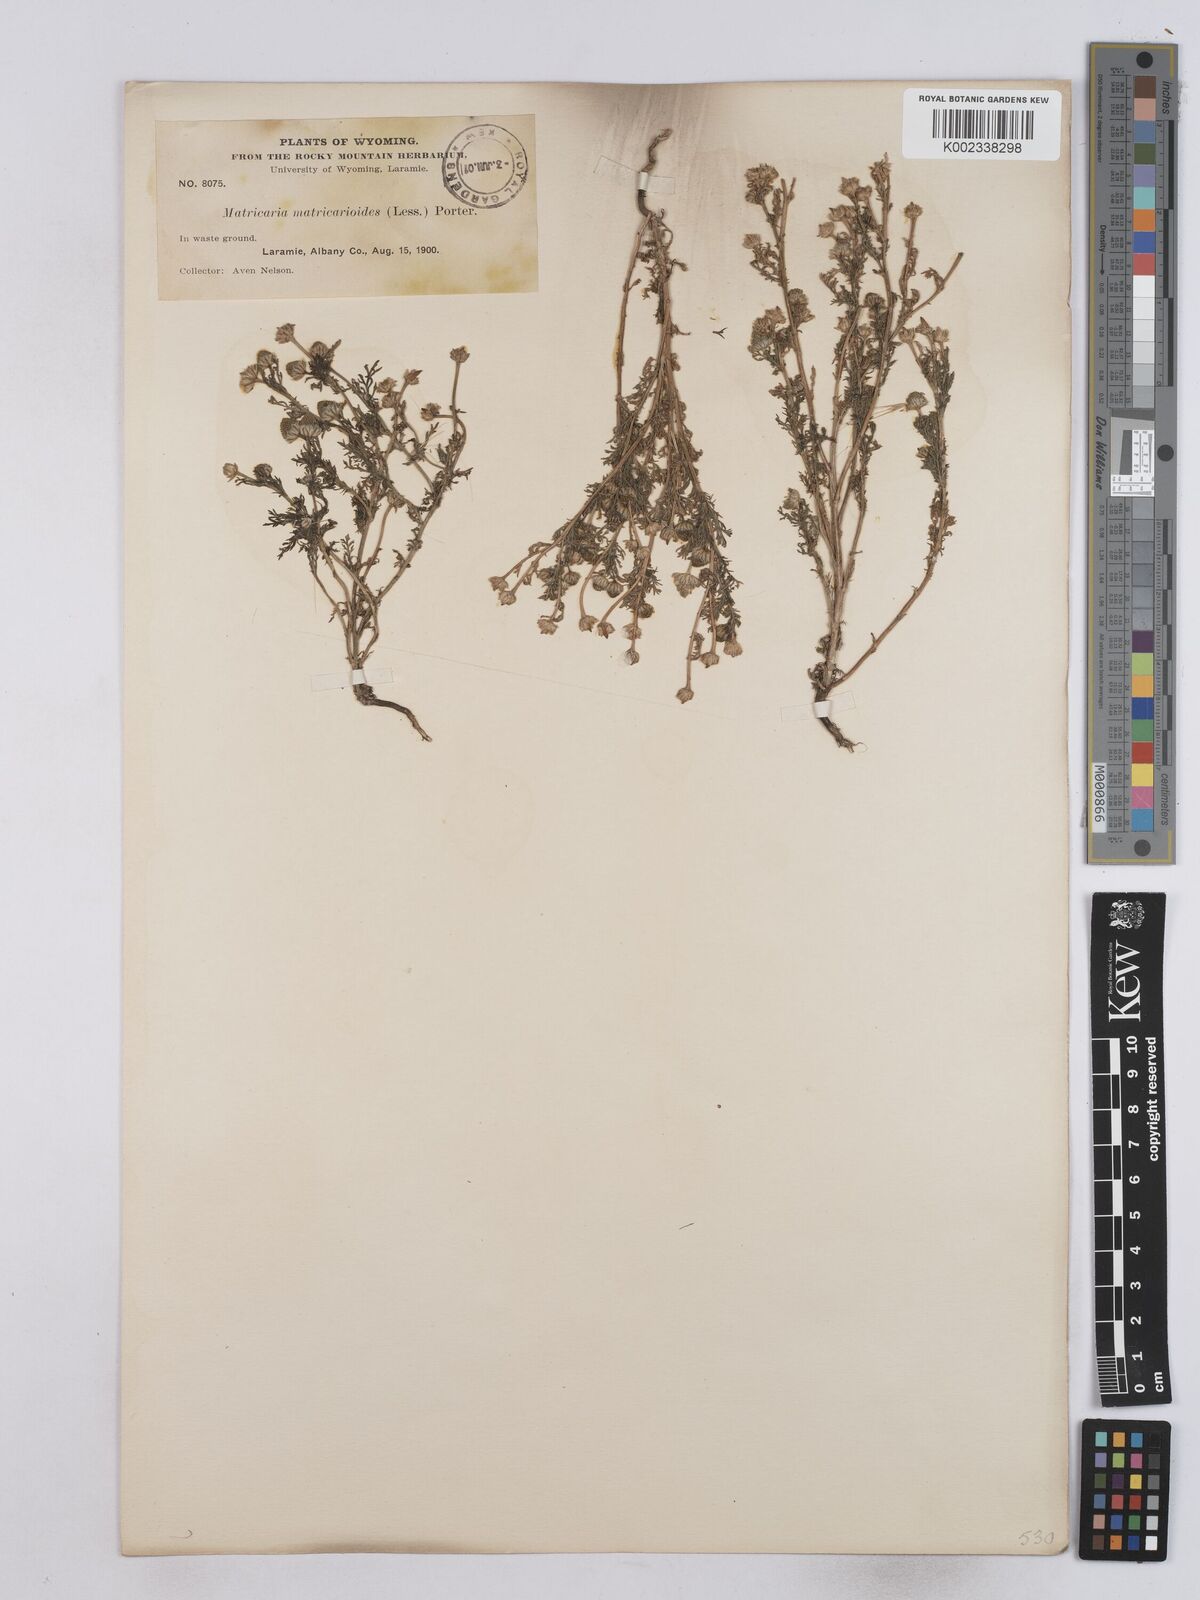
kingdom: Plantae
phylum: Tracheophyta
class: Magnoliopsida
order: Asterales
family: Asteraceae
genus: Matricaria
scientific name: Matricaria discoidea
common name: Disc mayweed
